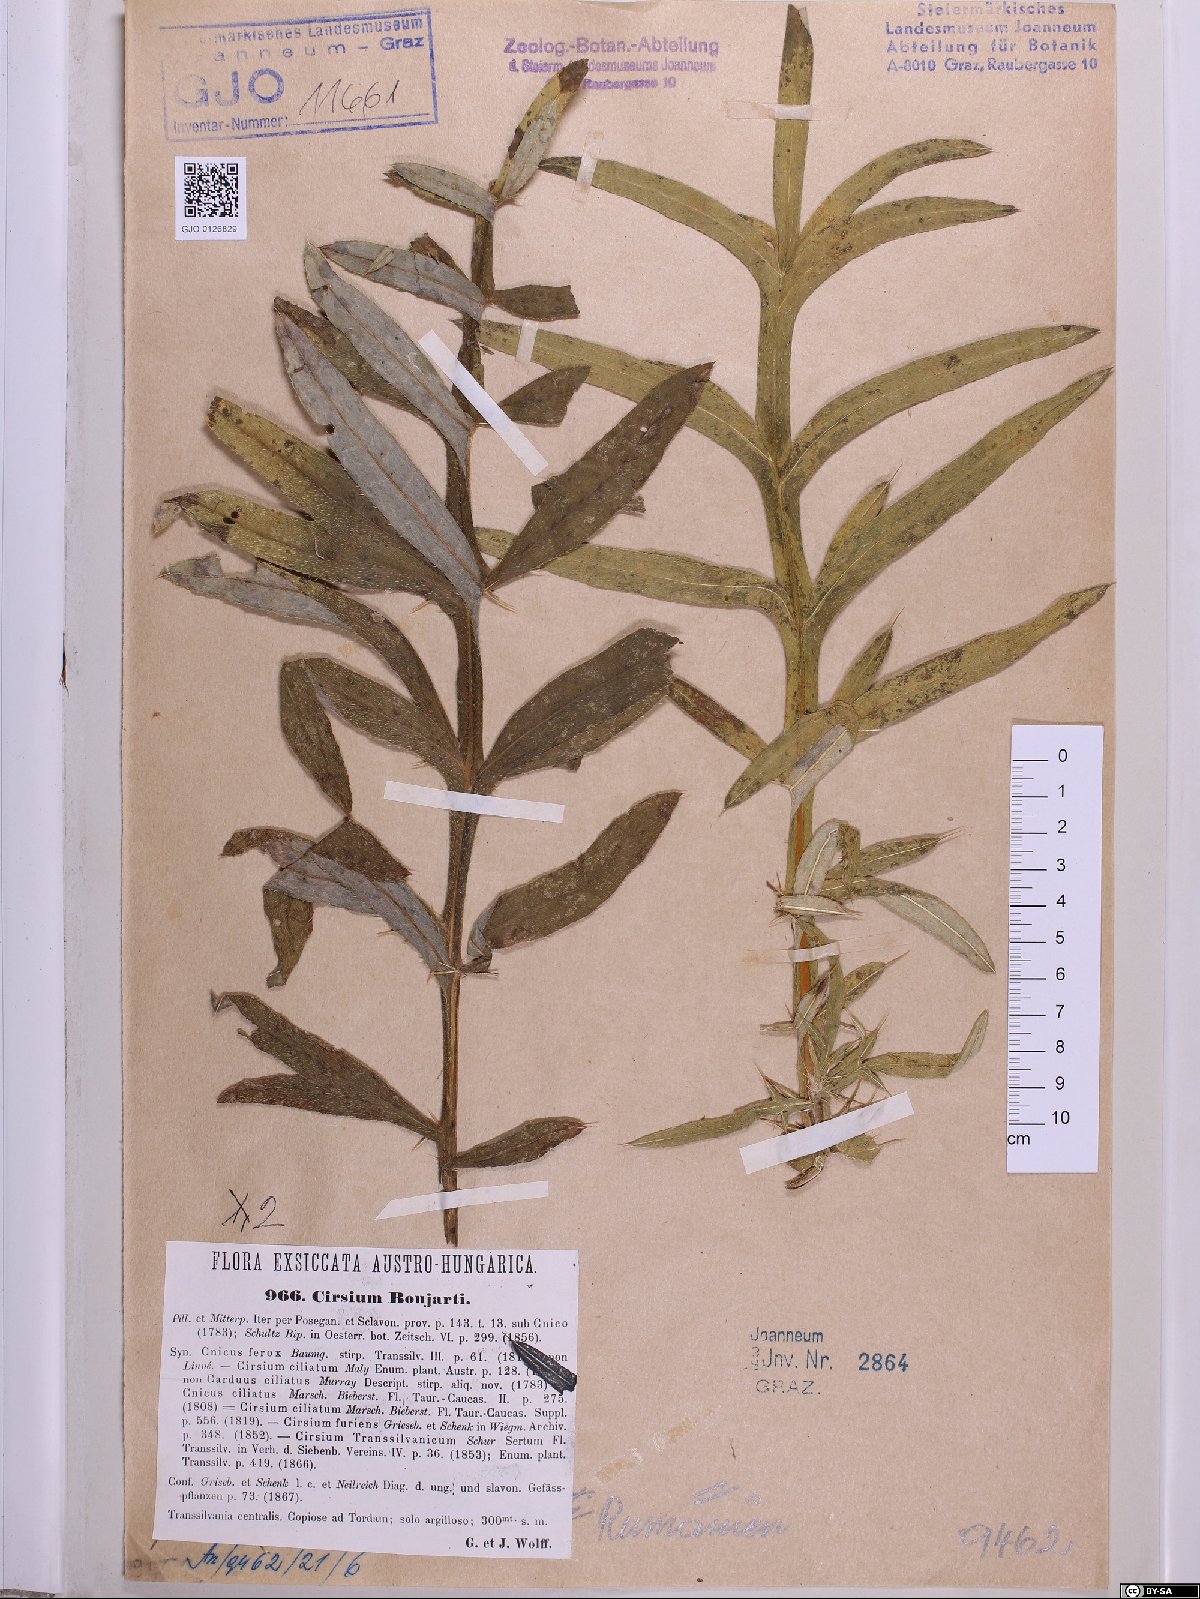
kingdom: Plantae
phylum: Tracheophyta
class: Magnoliopsida
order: Asterales
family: Asteraceae
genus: Lophiolepis
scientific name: Lophiolepis boujartii
